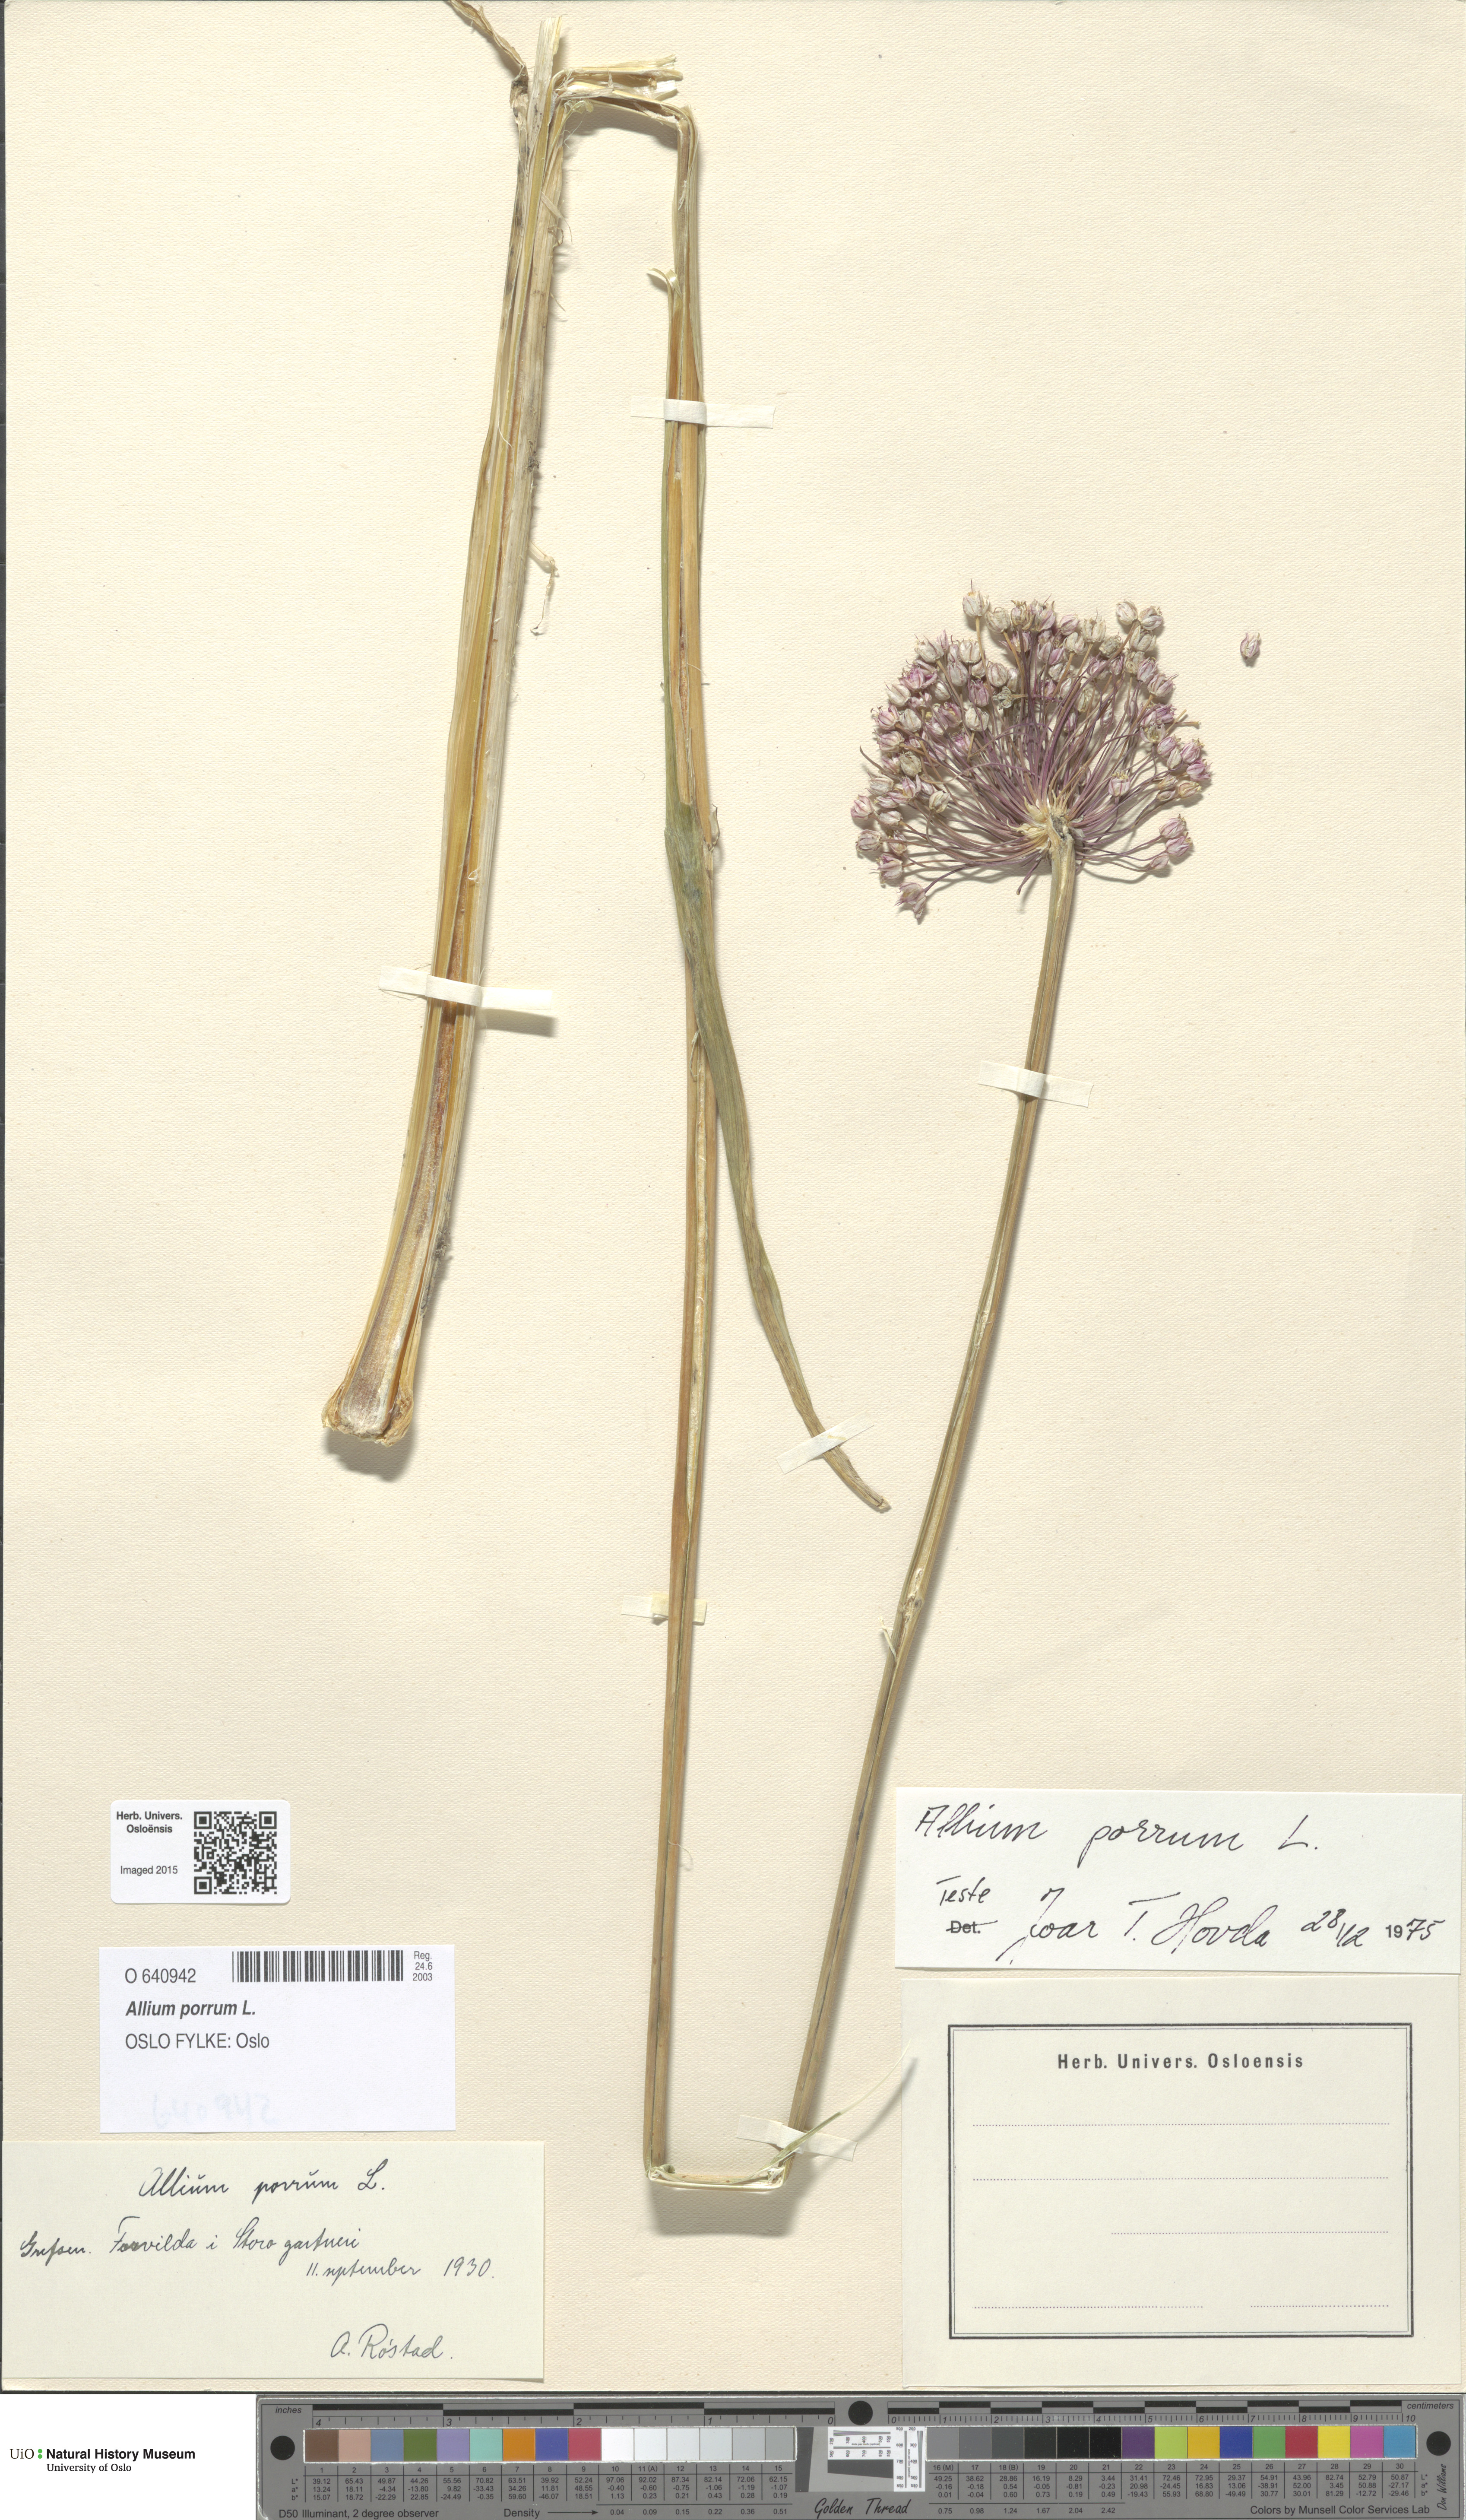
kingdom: Plantae
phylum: Tracheophyta
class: Liliopsida
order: Asparagales
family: Amaryllidaceae
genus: Allium
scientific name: Allium ampeloprasum
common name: Wild leek
